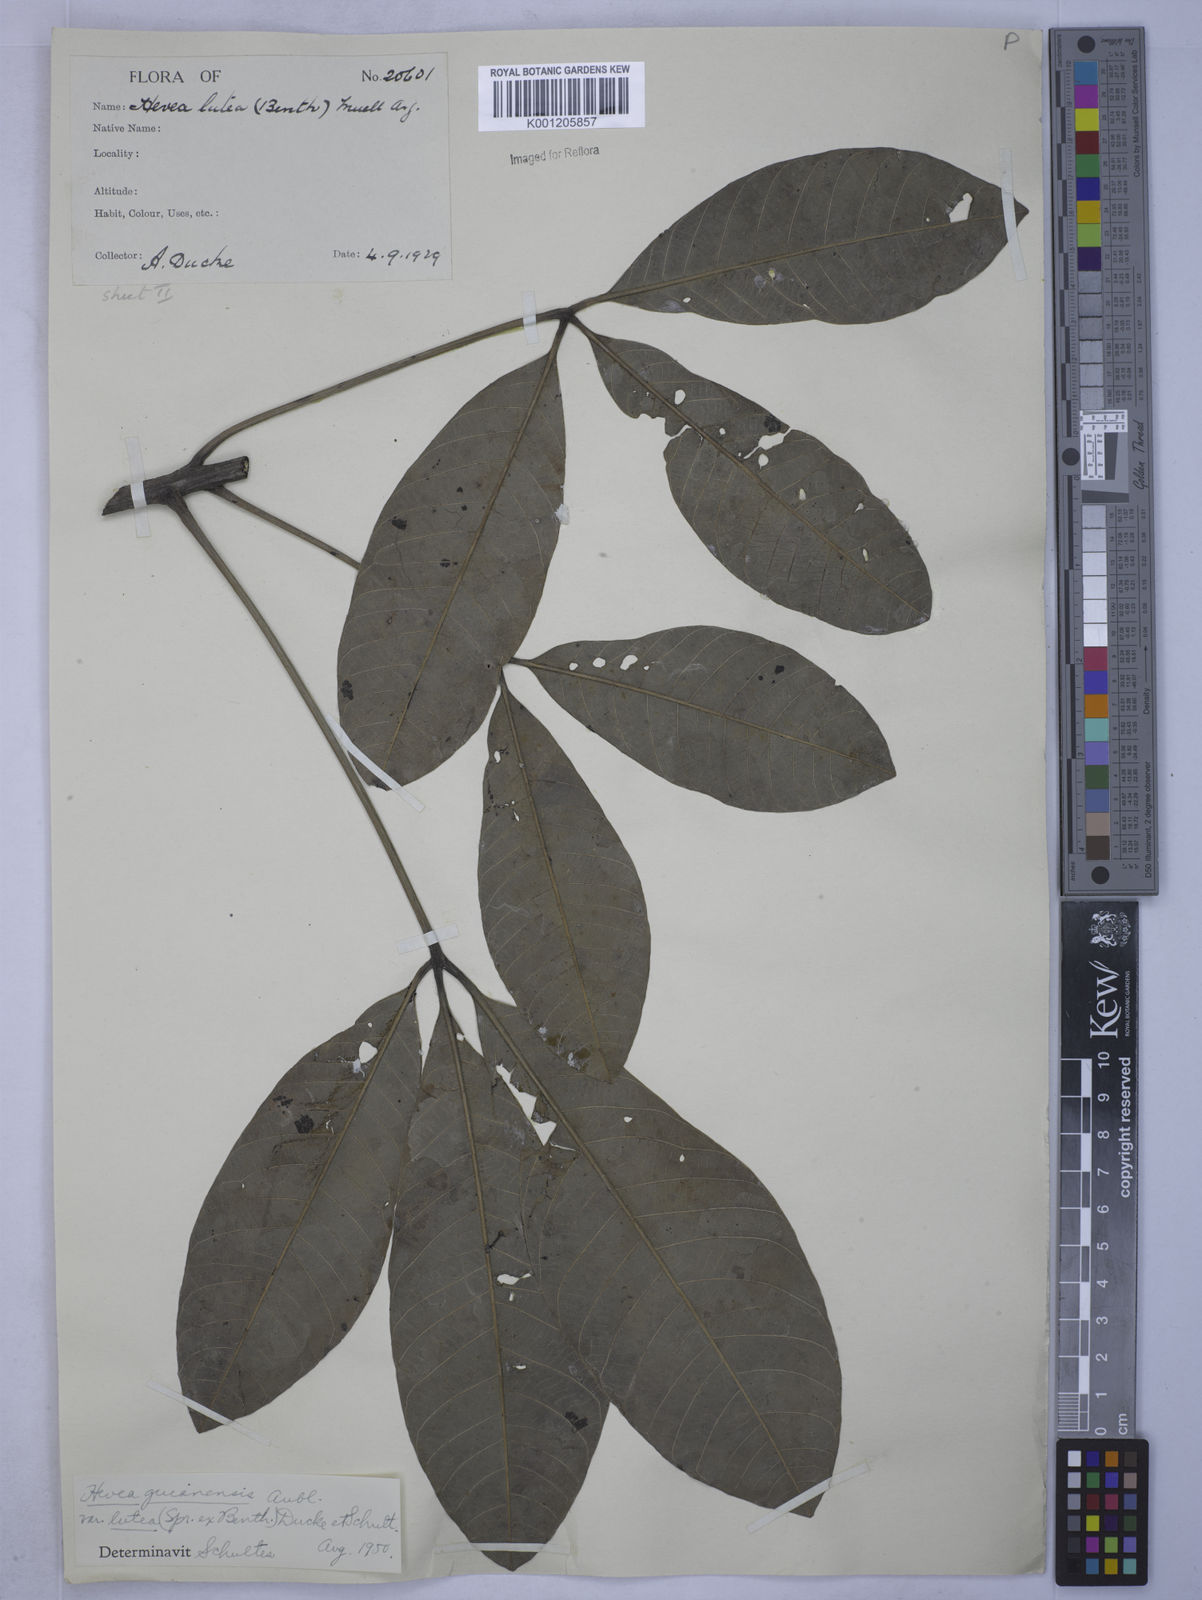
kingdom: Plantae
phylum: Tracheophyta
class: Magnoliopsida
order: Malpighiales
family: Euphorbiaceae
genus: Hevea
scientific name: Hevea guianensis
